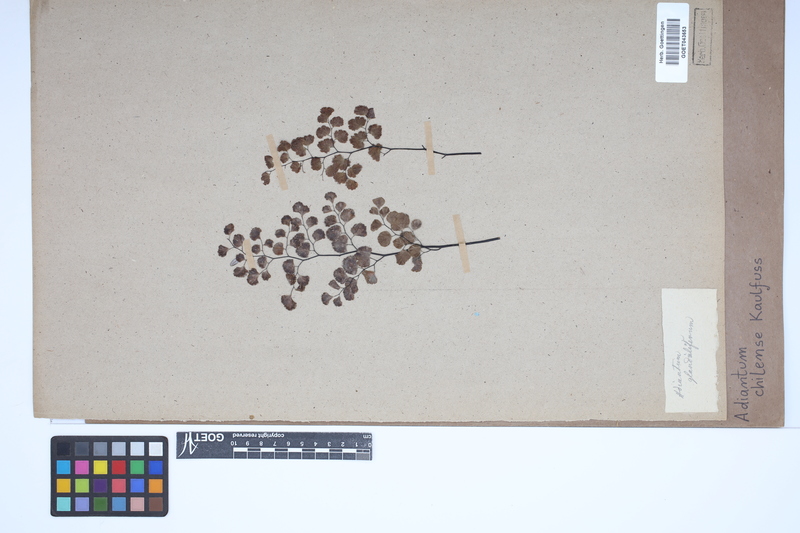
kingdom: Plantae
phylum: Tracheophyta
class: Polypodiopsida
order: Polypodiales
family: Pteridaceae
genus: Adiantum
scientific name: Adiantum chilense
